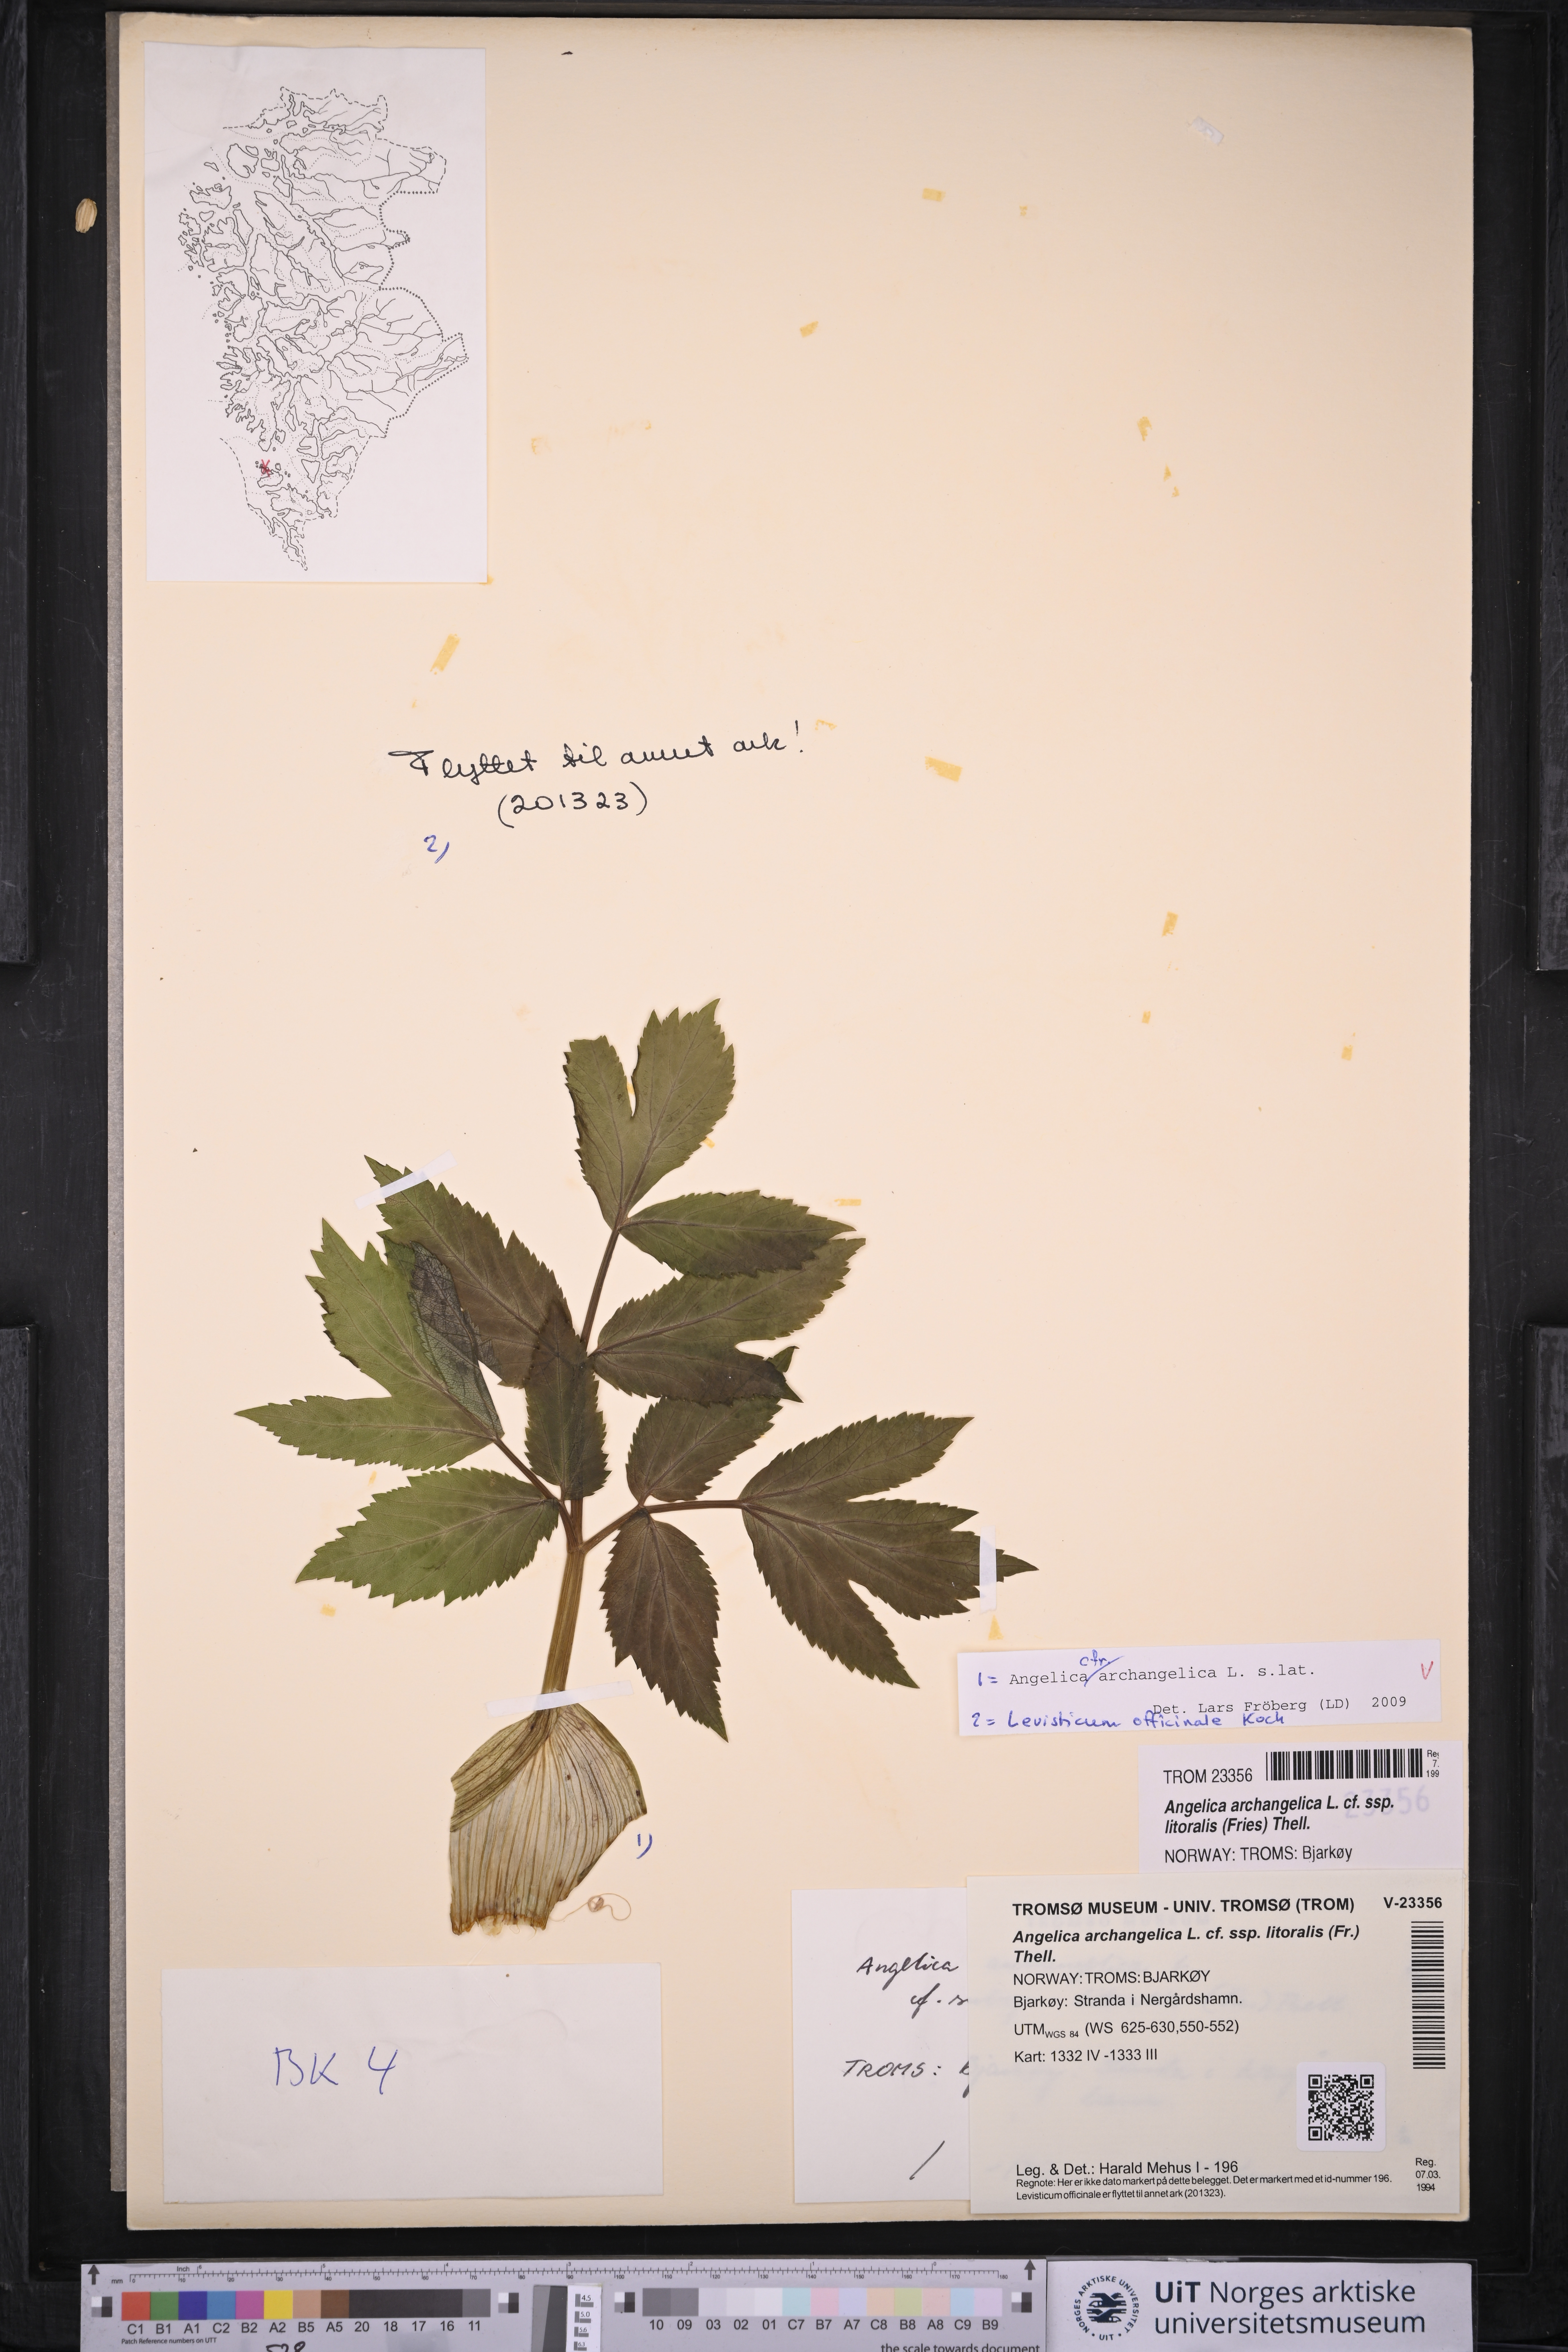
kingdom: Plantae
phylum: Tracheophyta
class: Magnoliopsida
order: Apiales
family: Apiaceae
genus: Angelica
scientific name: Angelica archangelica
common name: Garden angelica
